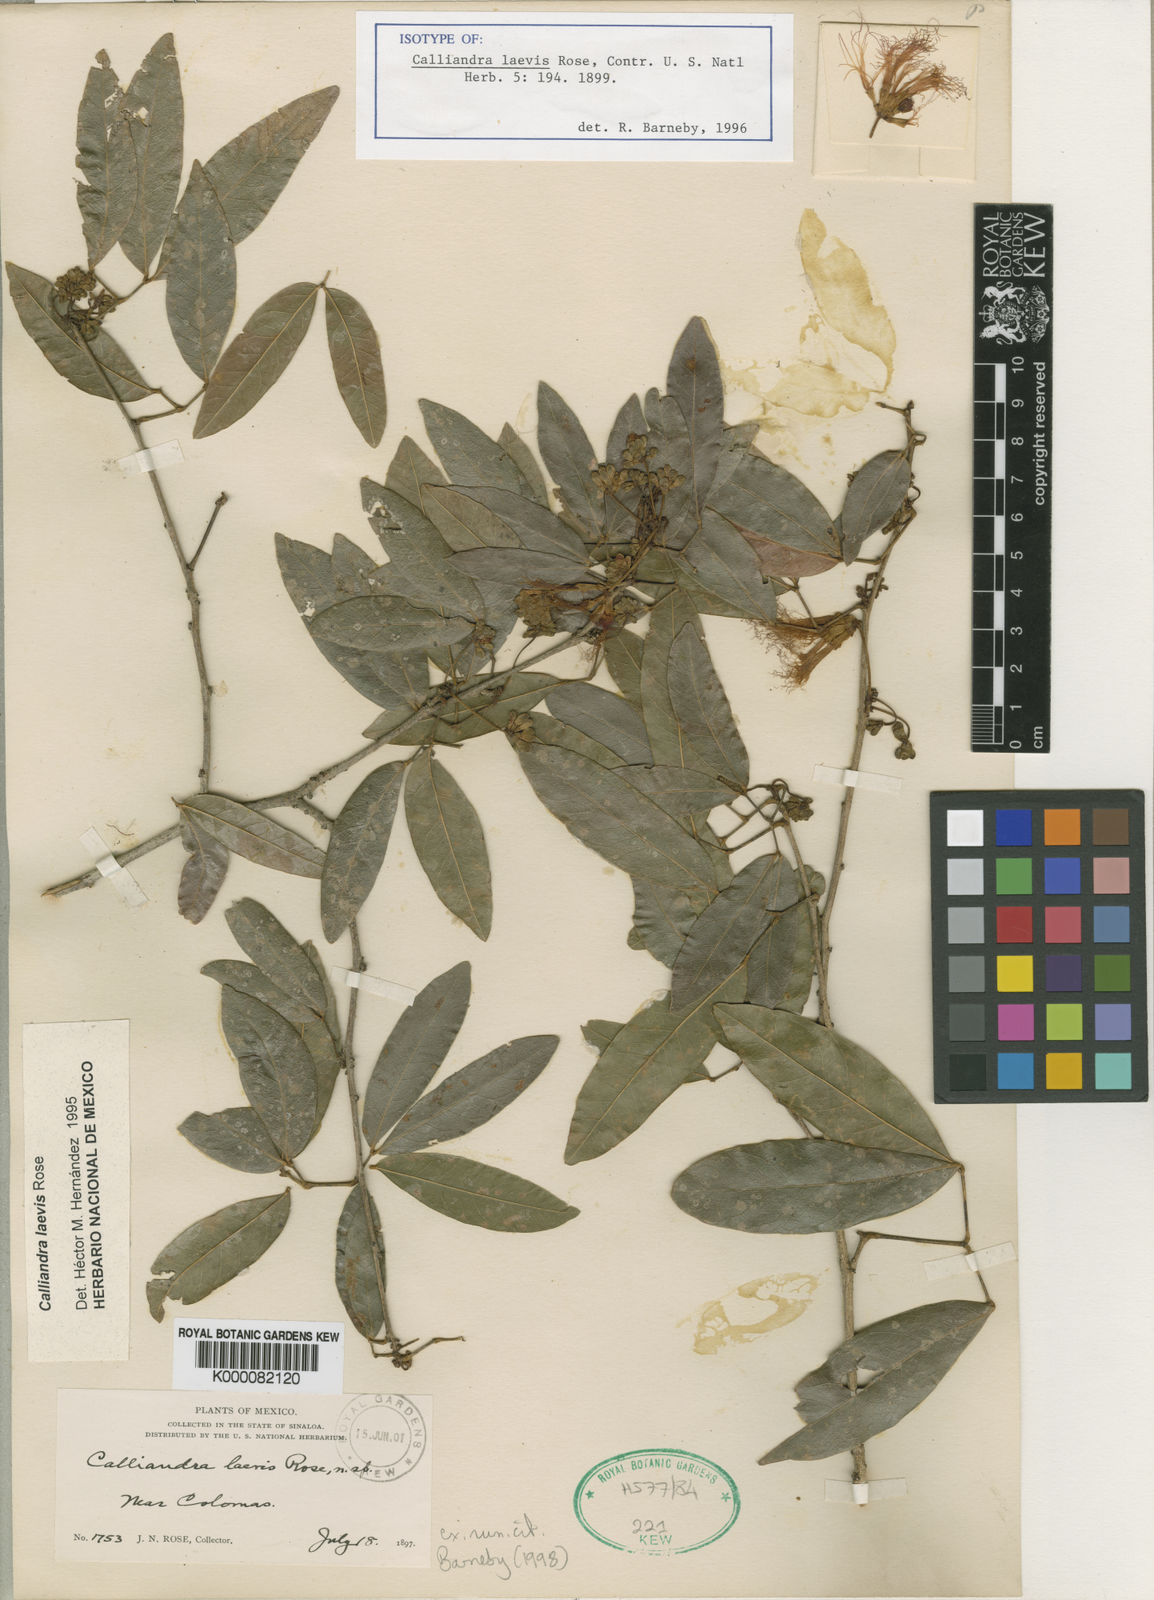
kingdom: Plantae
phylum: Tracheophyta
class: Magnoliopsida
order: Fabales
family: Fabaceae
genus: Calliandra
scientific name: Calliandra laevis
